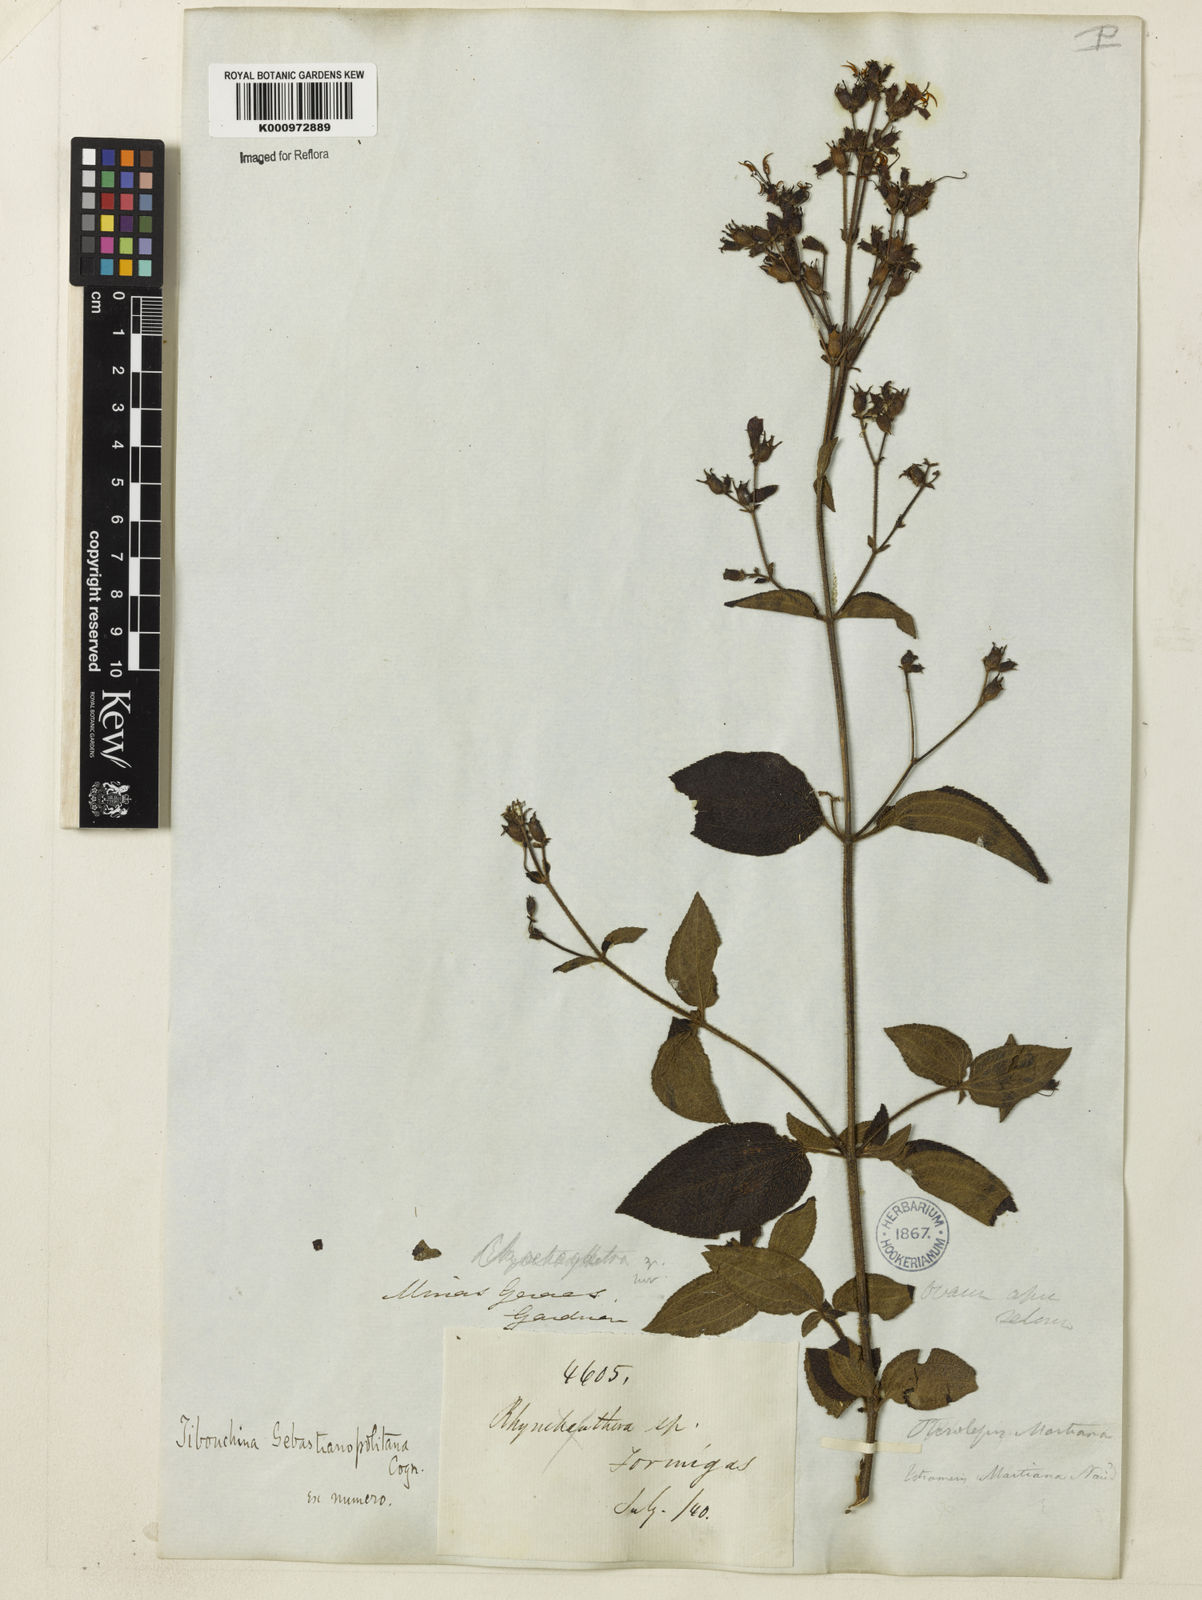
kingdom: Plantae
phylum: Tracheophyta
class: Magnoliopsida
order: Myrtales
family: Melastomataceae
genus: Chaetogastra
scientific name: Chaetogastra sebastianopolitana
